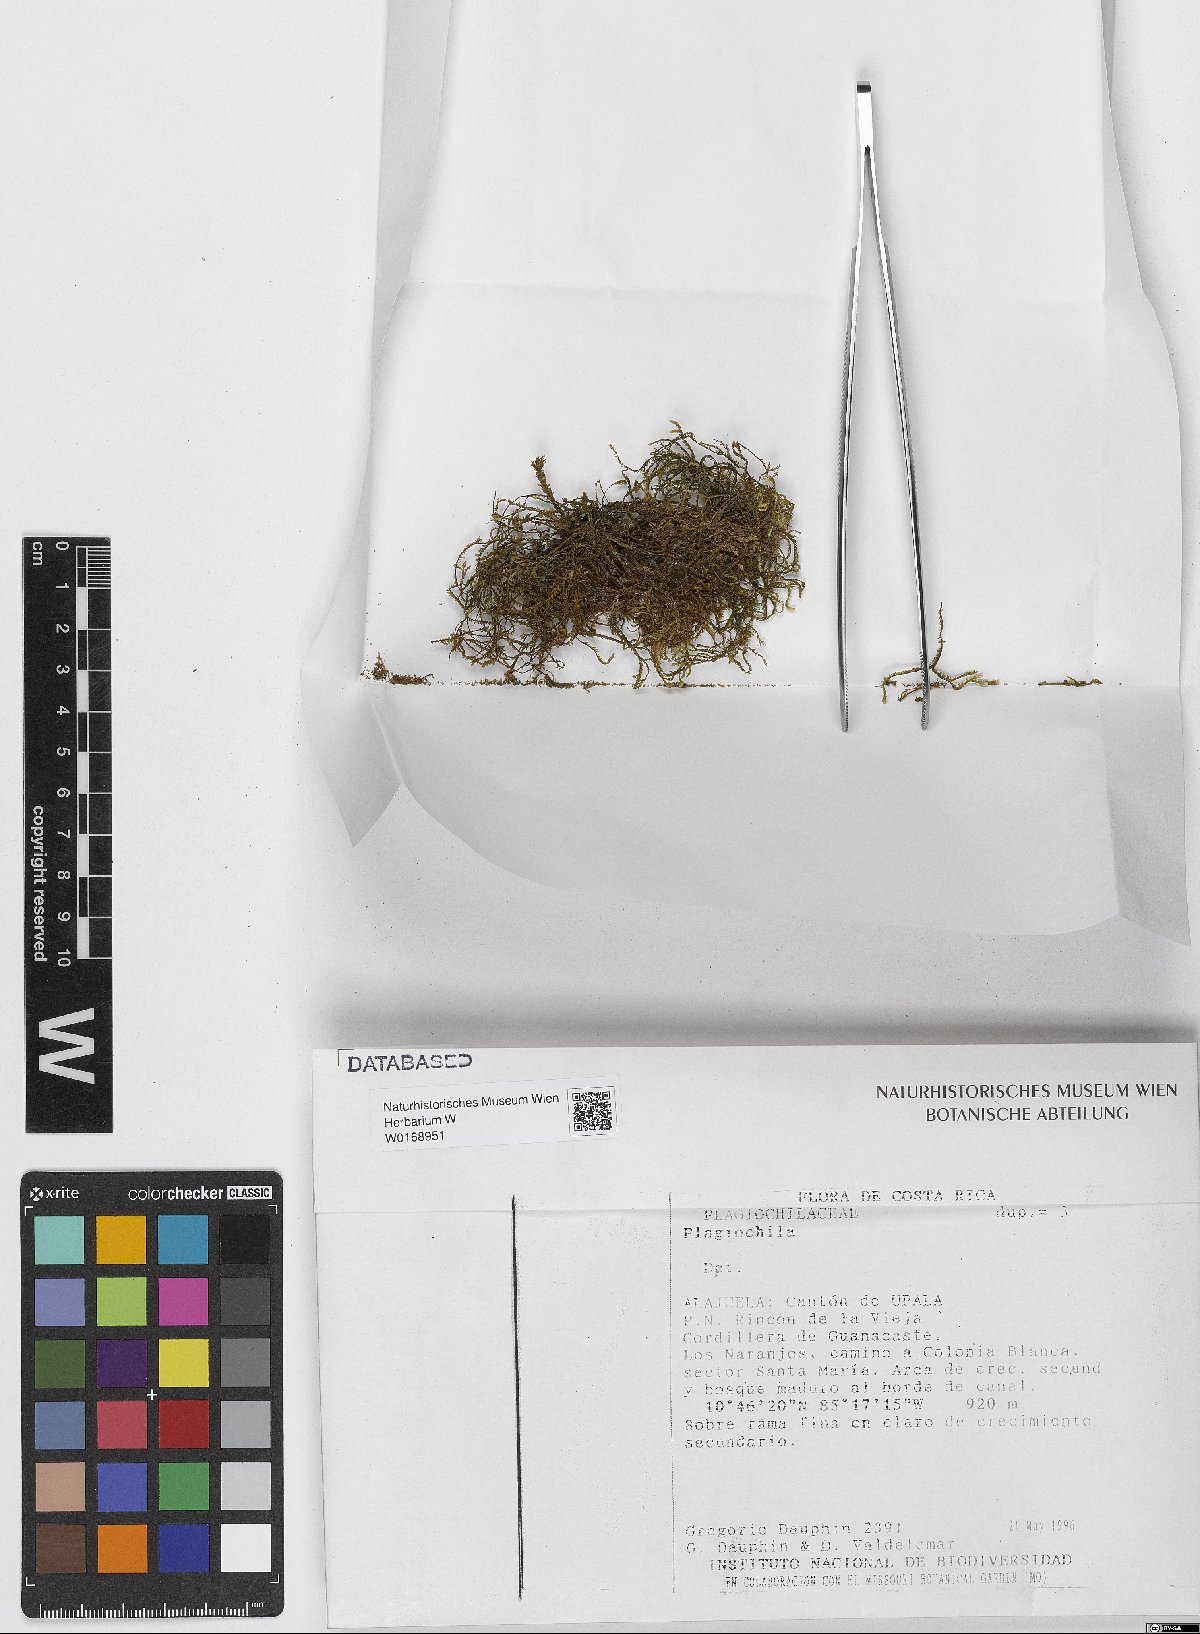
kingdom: Plantae
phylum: Marchantiophyta
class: Jungermanniopsida
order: Jungermanniales
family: Plagiochilaceae
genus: Plagiochila
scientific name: Plagiochila
